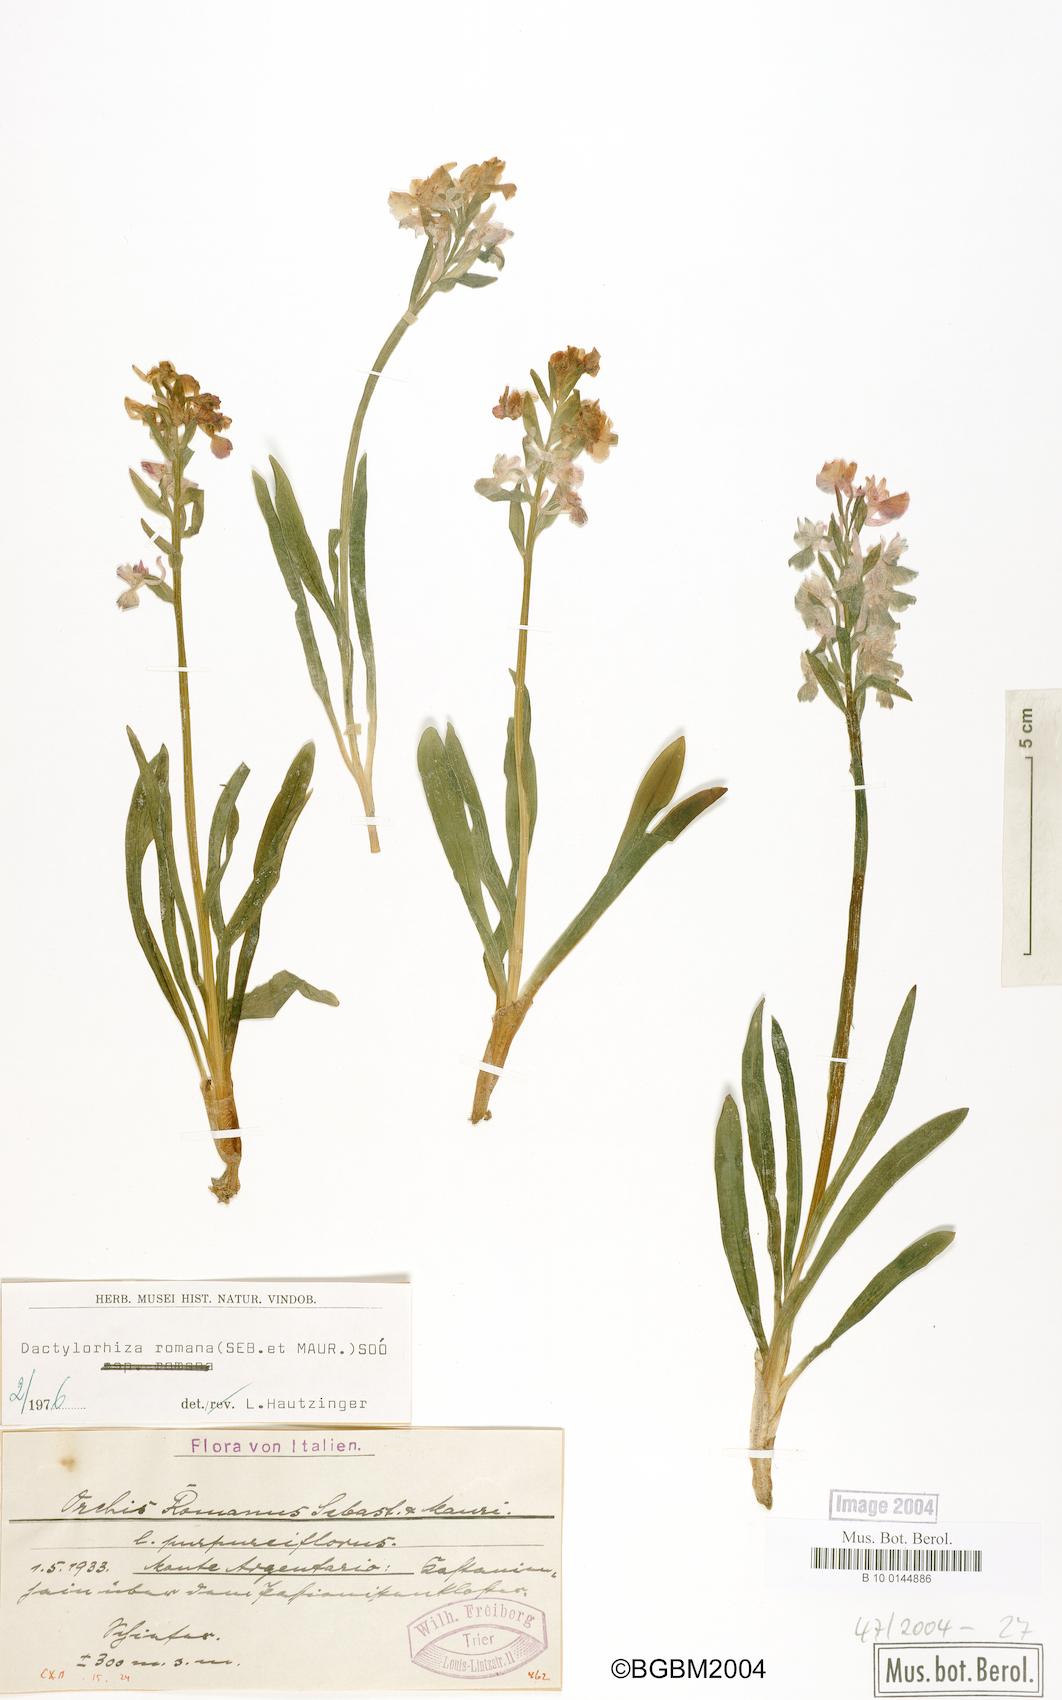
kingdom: Plantae
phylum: Tracheophyta
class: Liliopsida
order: Asparagales
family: Orchidaceae
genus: Dactylorhiza
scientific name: Dactylorhiza romana
